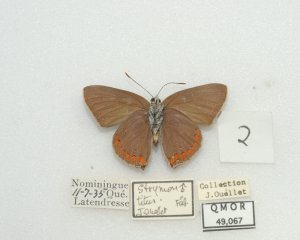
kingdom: Animalia
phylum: Arthropoda
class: Insecta
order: Lepidoptera
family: Lycaenidae
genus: Harkenclenus
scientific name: Harkenclenus titus
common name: Coral Hairstreak
